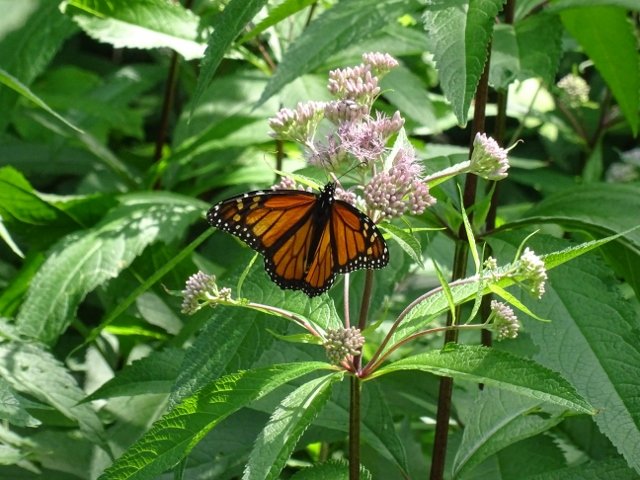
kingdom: Animalia
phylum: Arthropoda
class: Insecta
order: Lepidoptera
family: Nymphalidae
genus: Danaus
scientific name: Danaus plexippus
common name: Monarch
